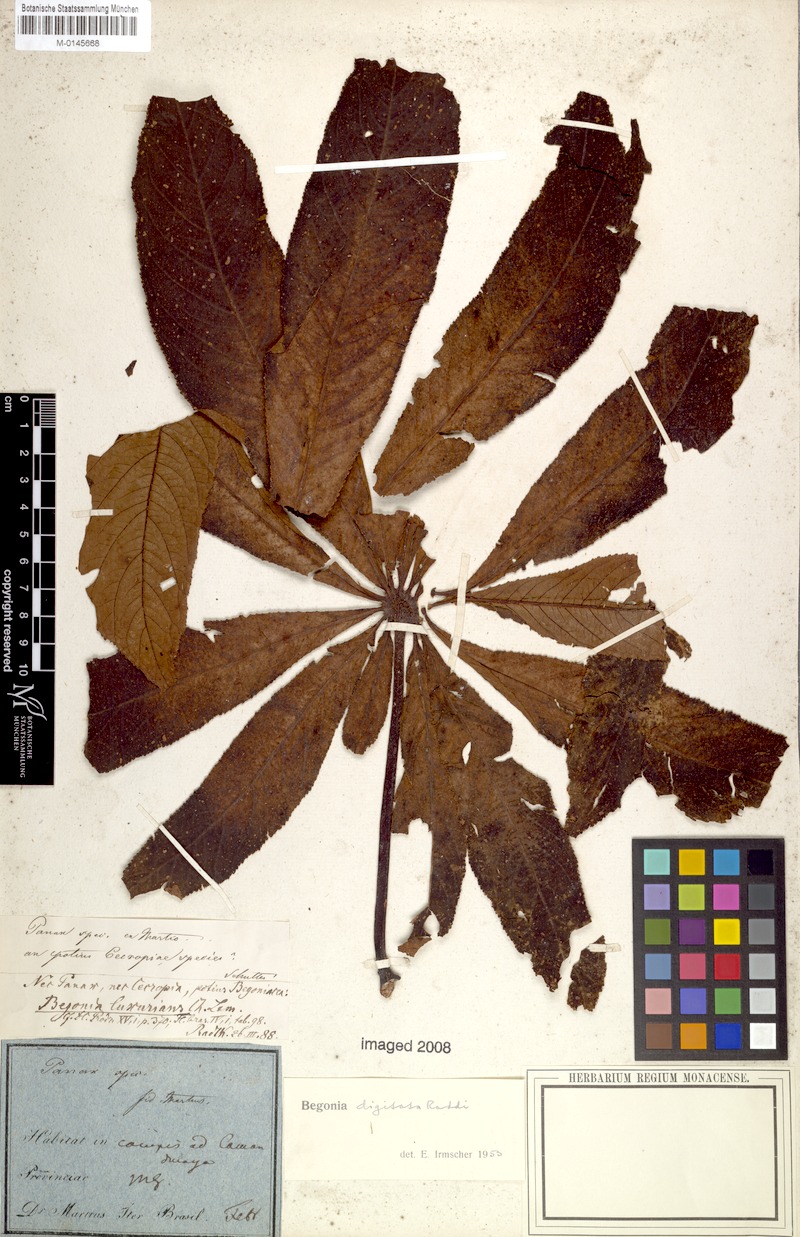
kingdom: Plantae
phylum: Tracheophyta
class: Magnoliopsida
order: Cucurbitales
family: Begoniaceae
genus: Begonia
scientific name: Begonia digitata
